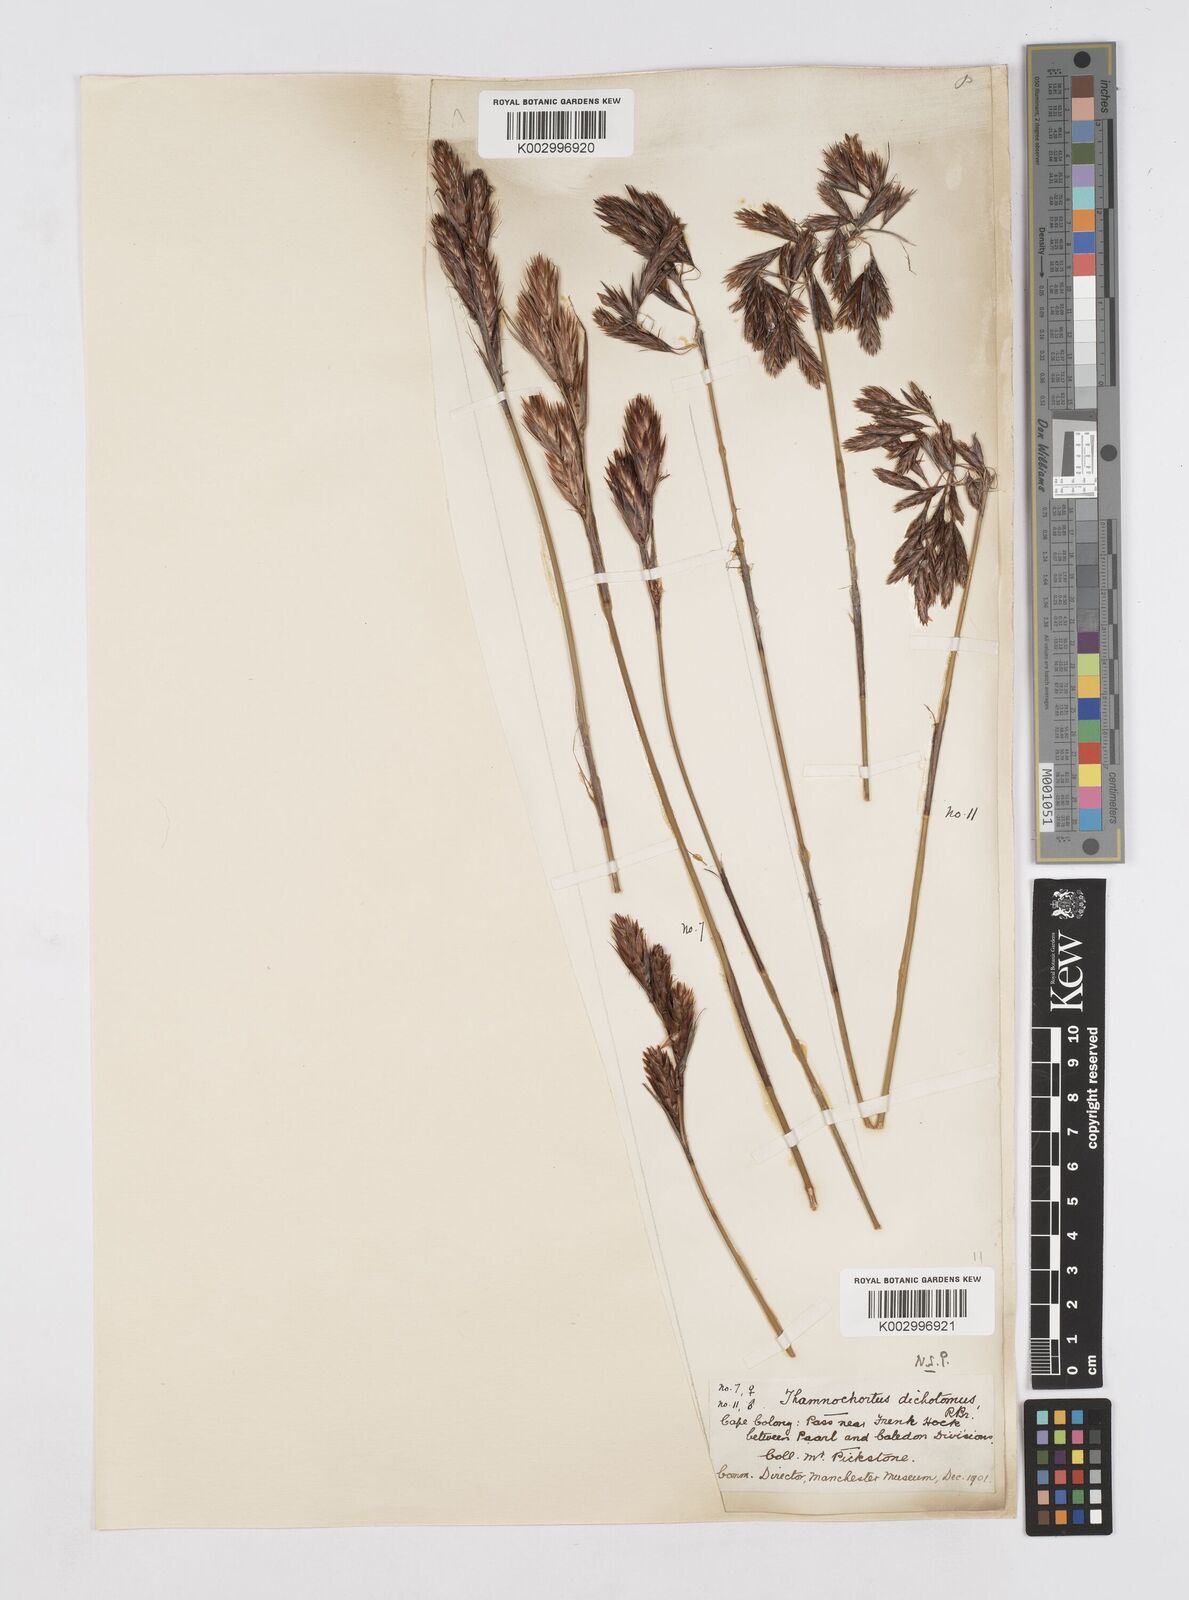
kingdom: Plantae
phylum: Tracheophyta
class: Liliopsida
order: Poales
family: Restionaceae
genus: Thamnochortus
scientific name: Thamnochortus lucens
